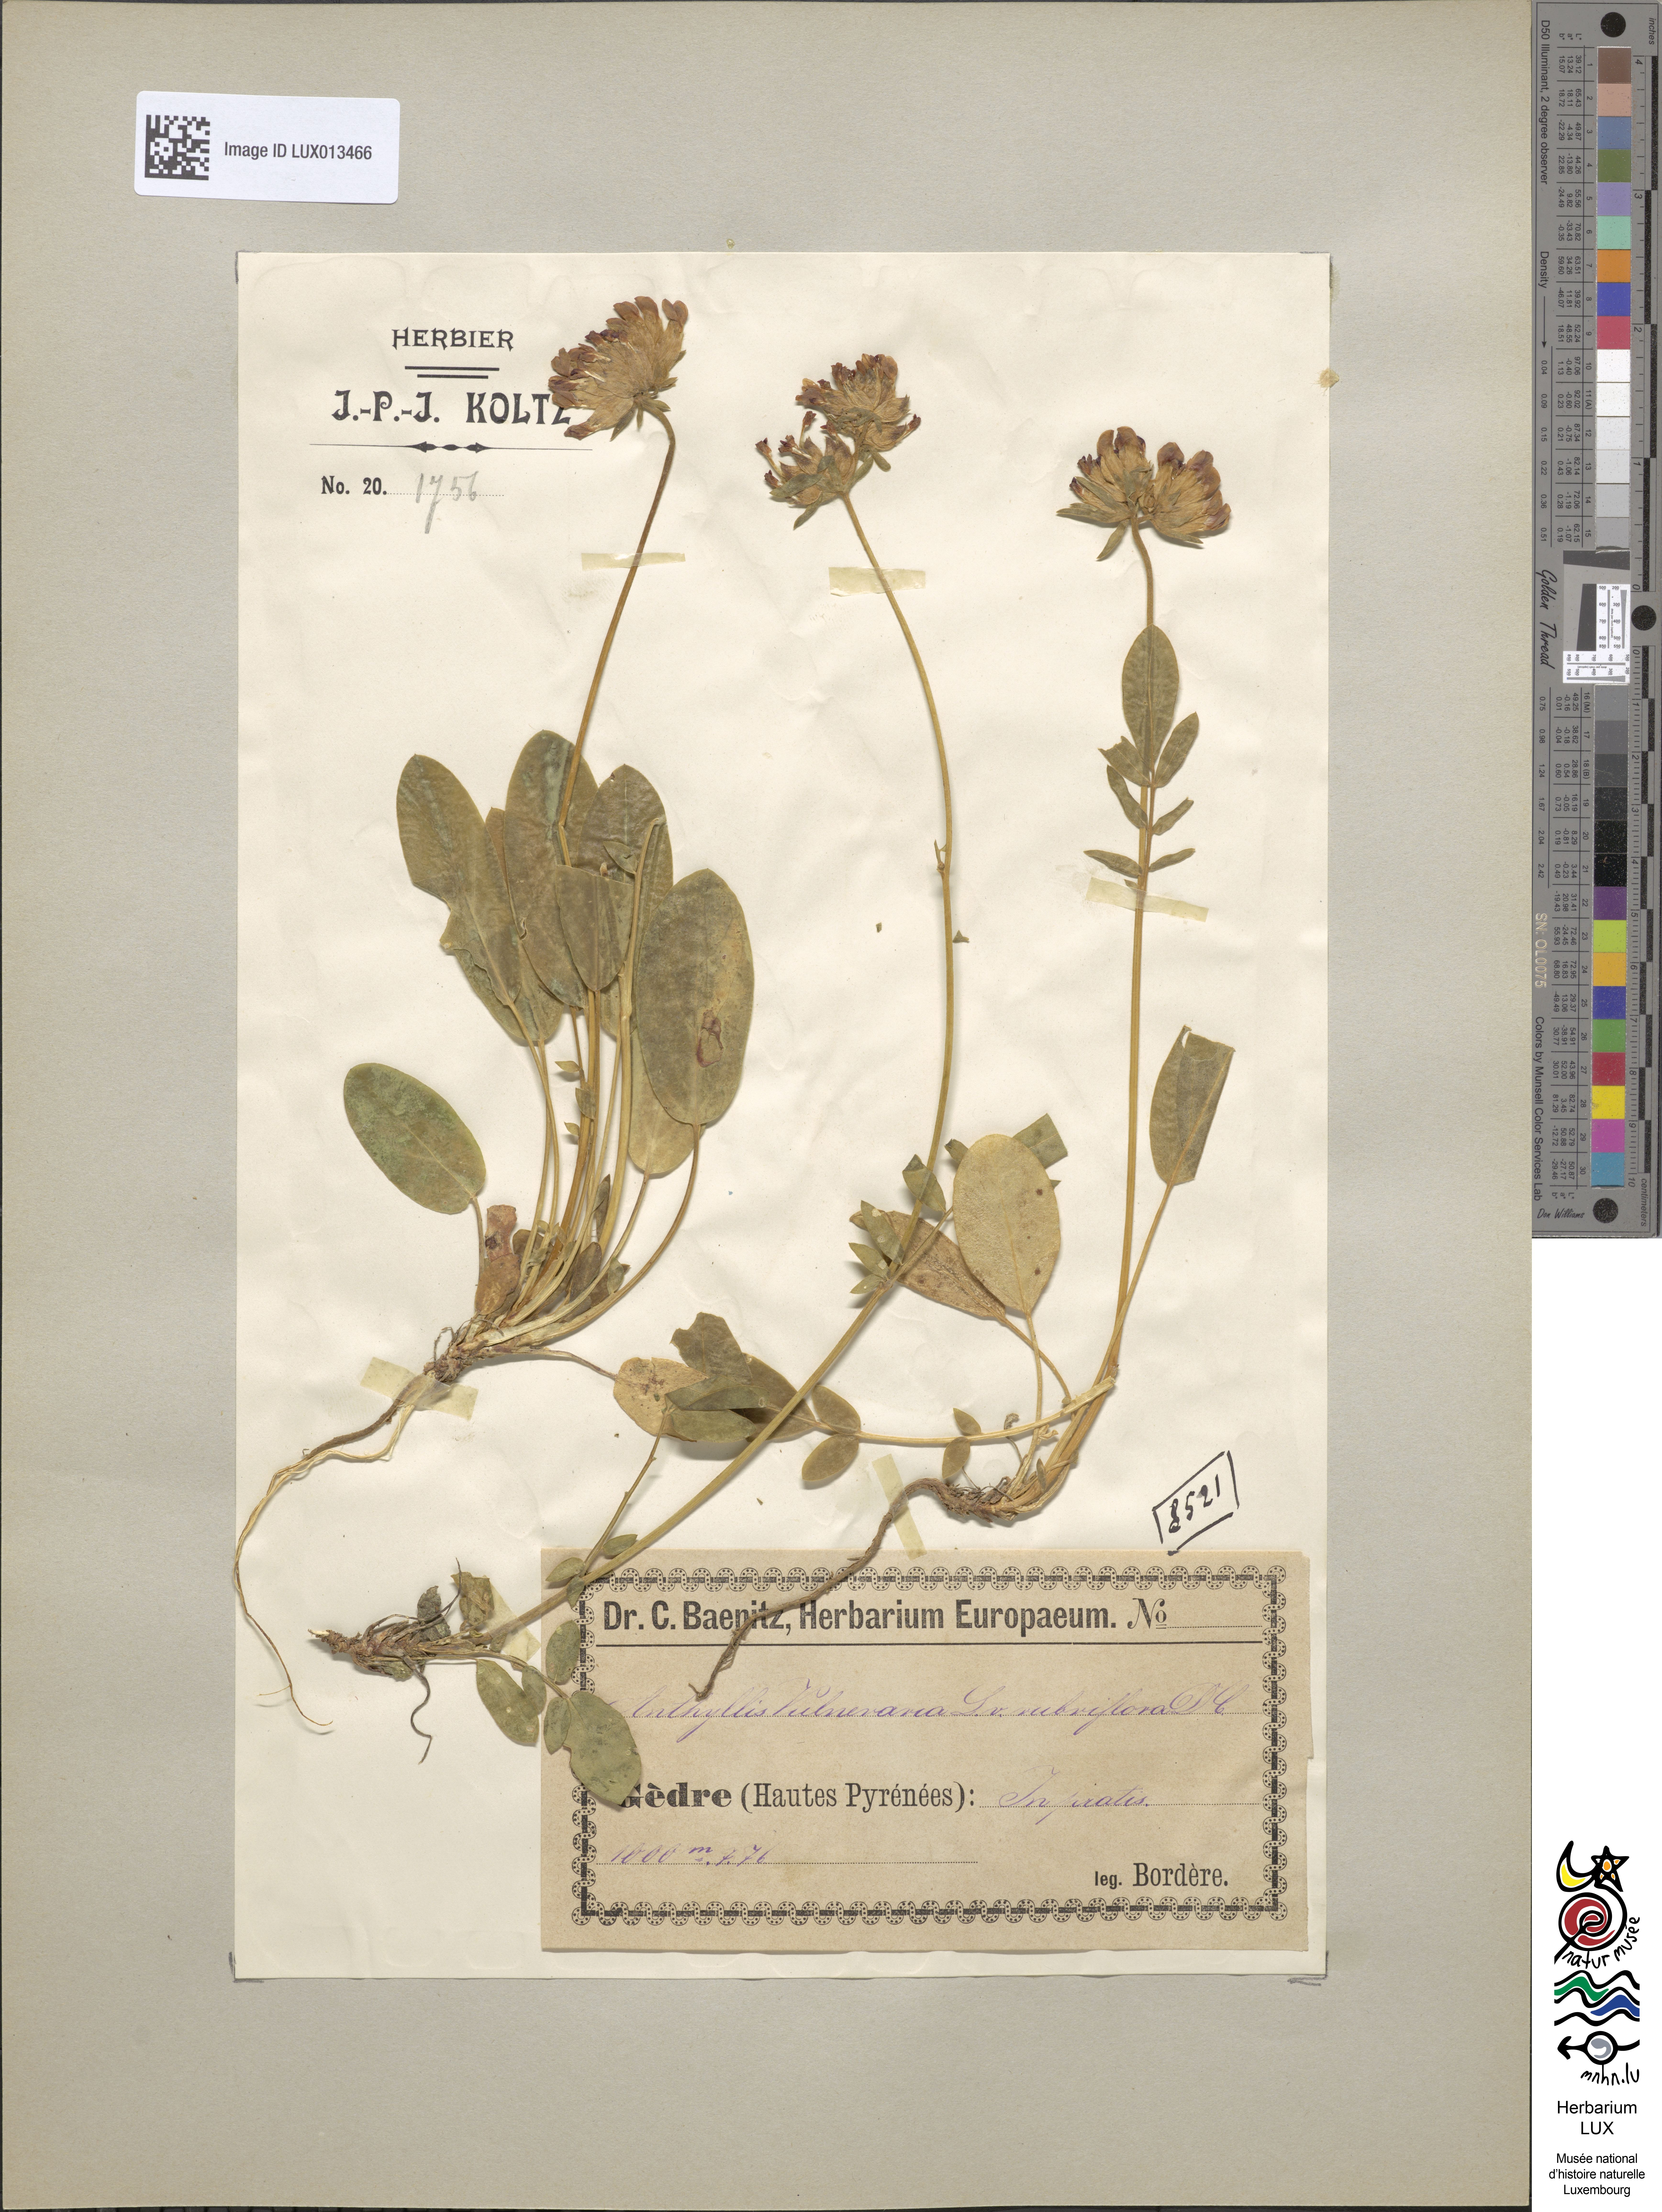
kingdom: Plantae
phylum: Tracheophyta
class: Magnoliopsida
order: Fabales
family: Fabaceae
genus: Anthyllis
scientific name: Anthyllis vulneraria
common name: Kidney vetch
